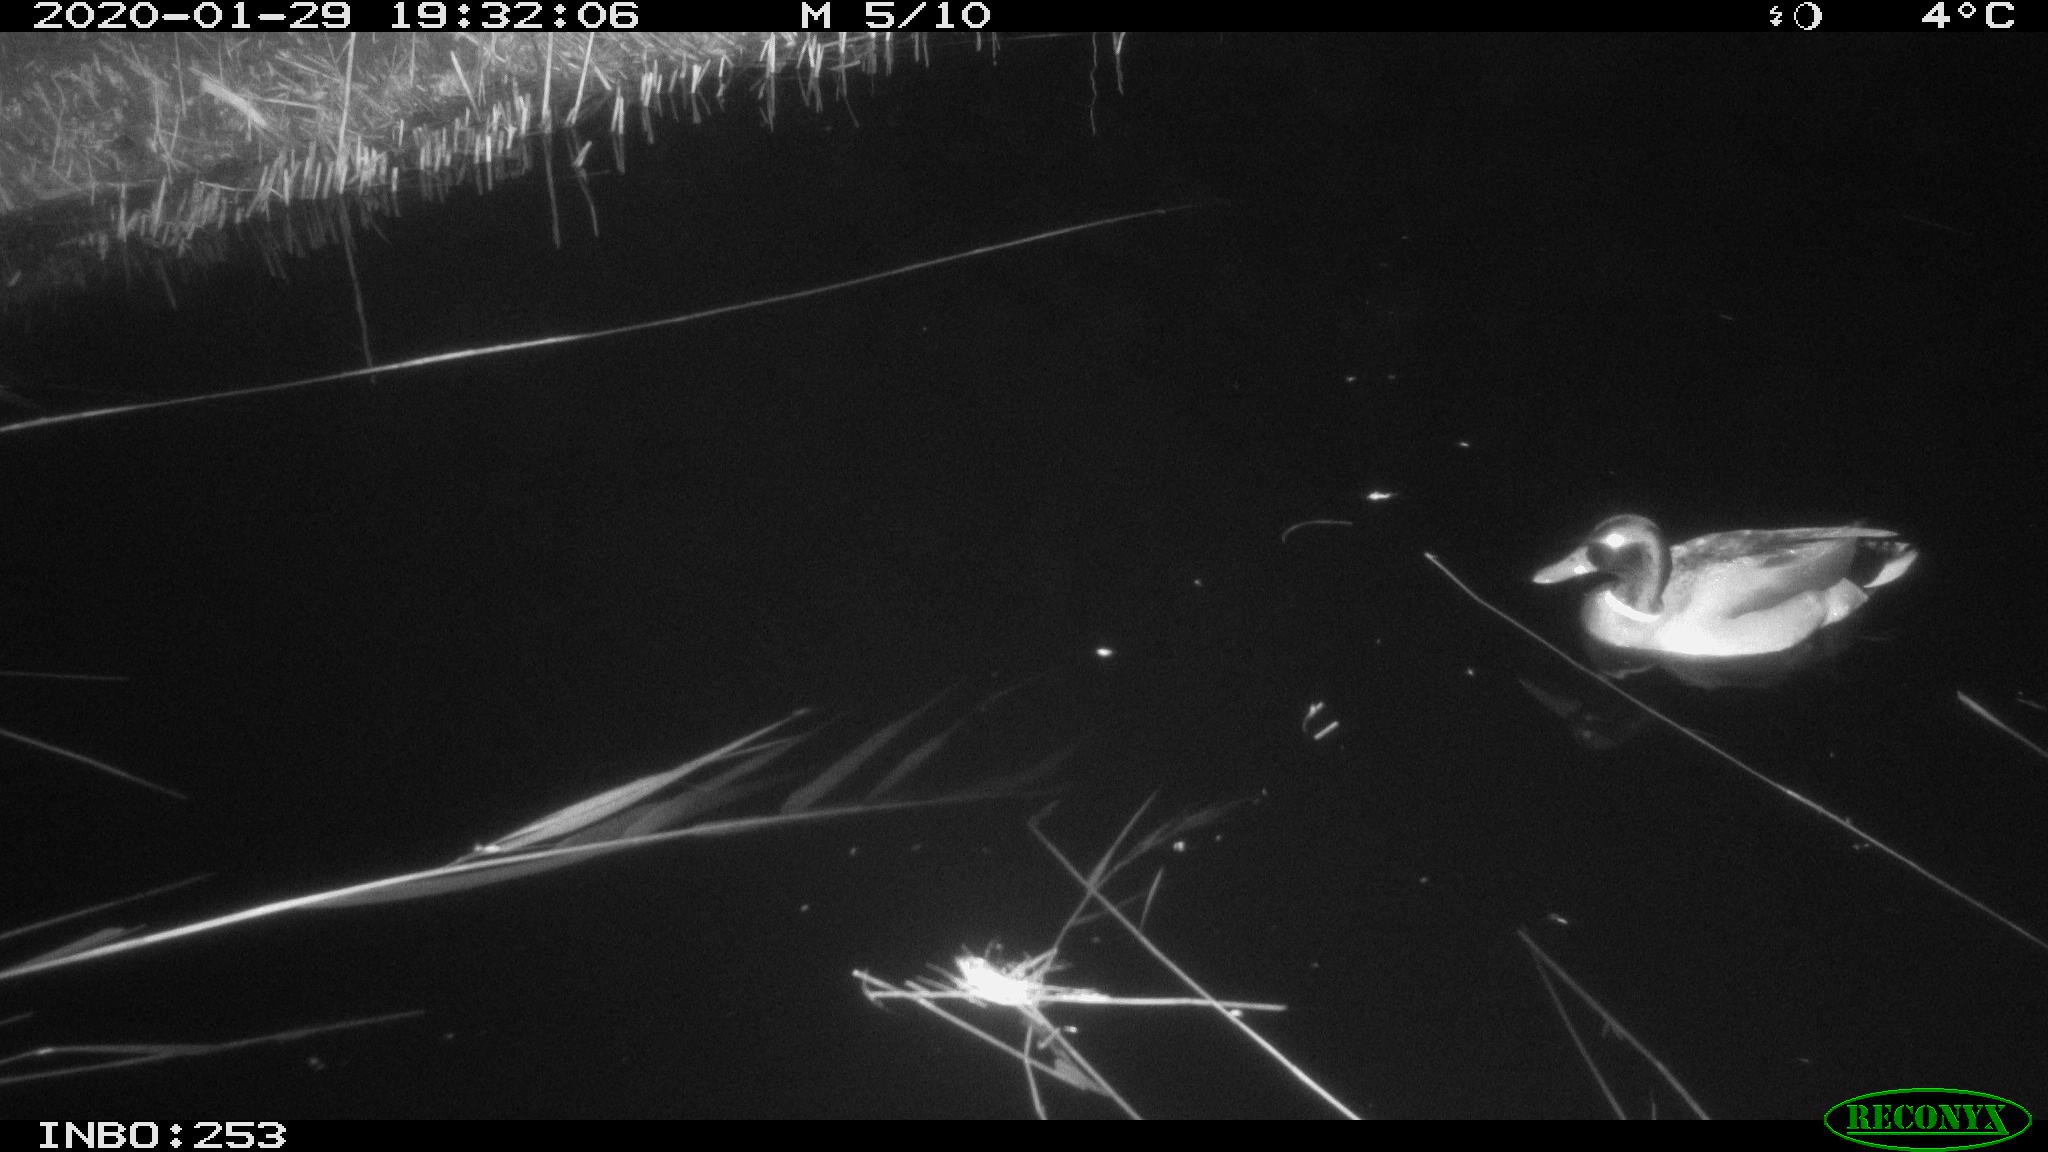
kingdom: Animalia
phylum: Chordata
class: Aves
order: Anseriformes
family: Anatidae
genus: Anas
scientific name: Anas platyrhynchos
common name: Mallard
